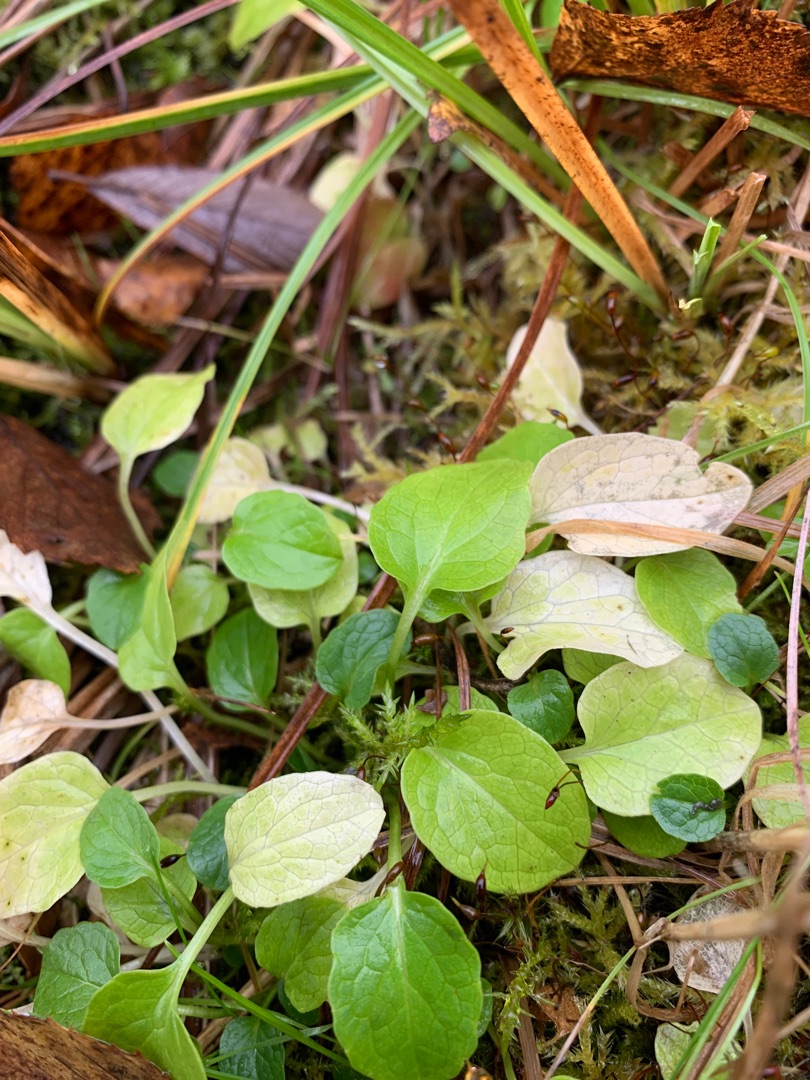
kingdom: Plantae
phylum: Tracheophyta
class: Magnoliopsida
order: Dipsacales
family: Caprifoliaceae
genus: Valeriana
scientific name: Valeriana dioica
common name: Tvebo baldrian
